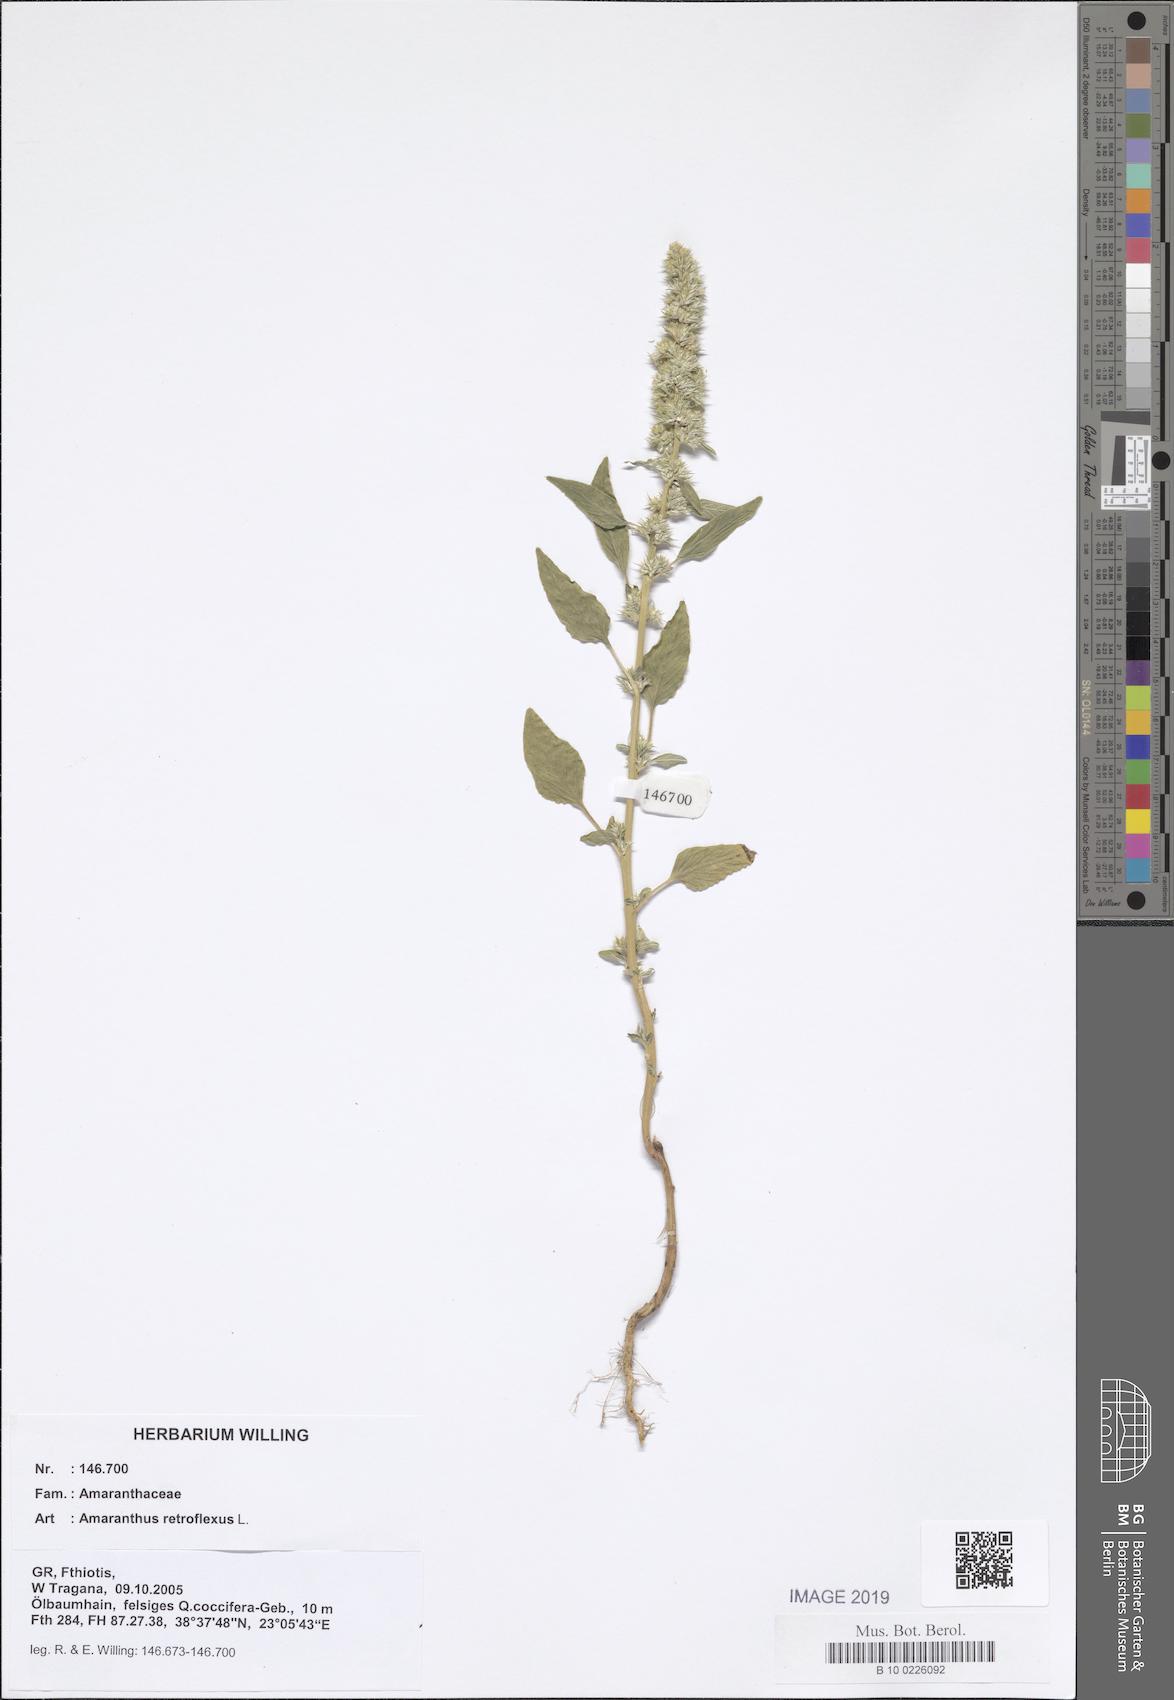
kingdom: Plantae
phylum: Tracheophyta
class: Magnoliopsida
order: Caryophyllales
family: Amaranthaceae
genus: Amaranthus
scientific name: Amaranthus retroflexus
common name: Redroot amaranth
